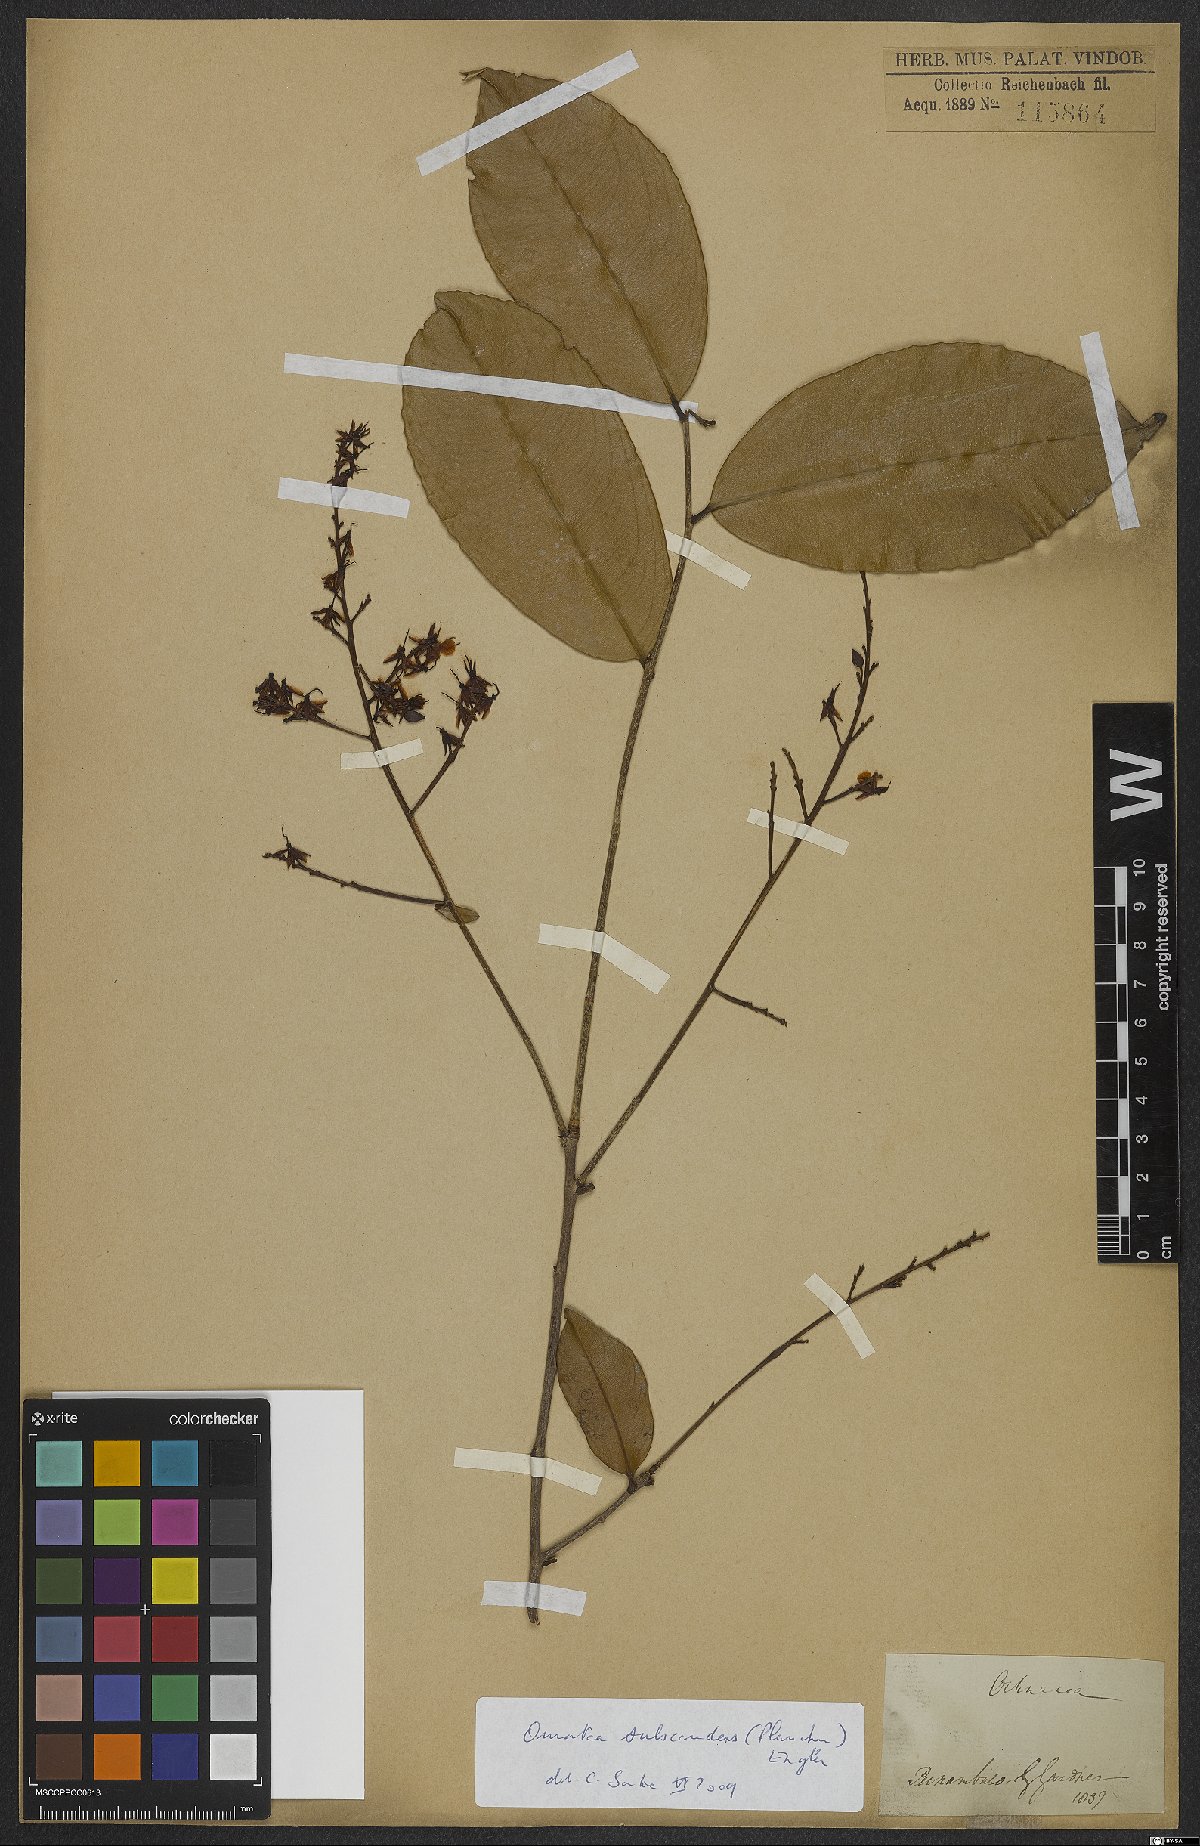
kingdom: Plantae
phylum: Tracheophyta
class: Magnoliopsida
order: Malpighiales
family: Ochnaceae
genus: Ouratea
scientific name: Ouratea subscandens
